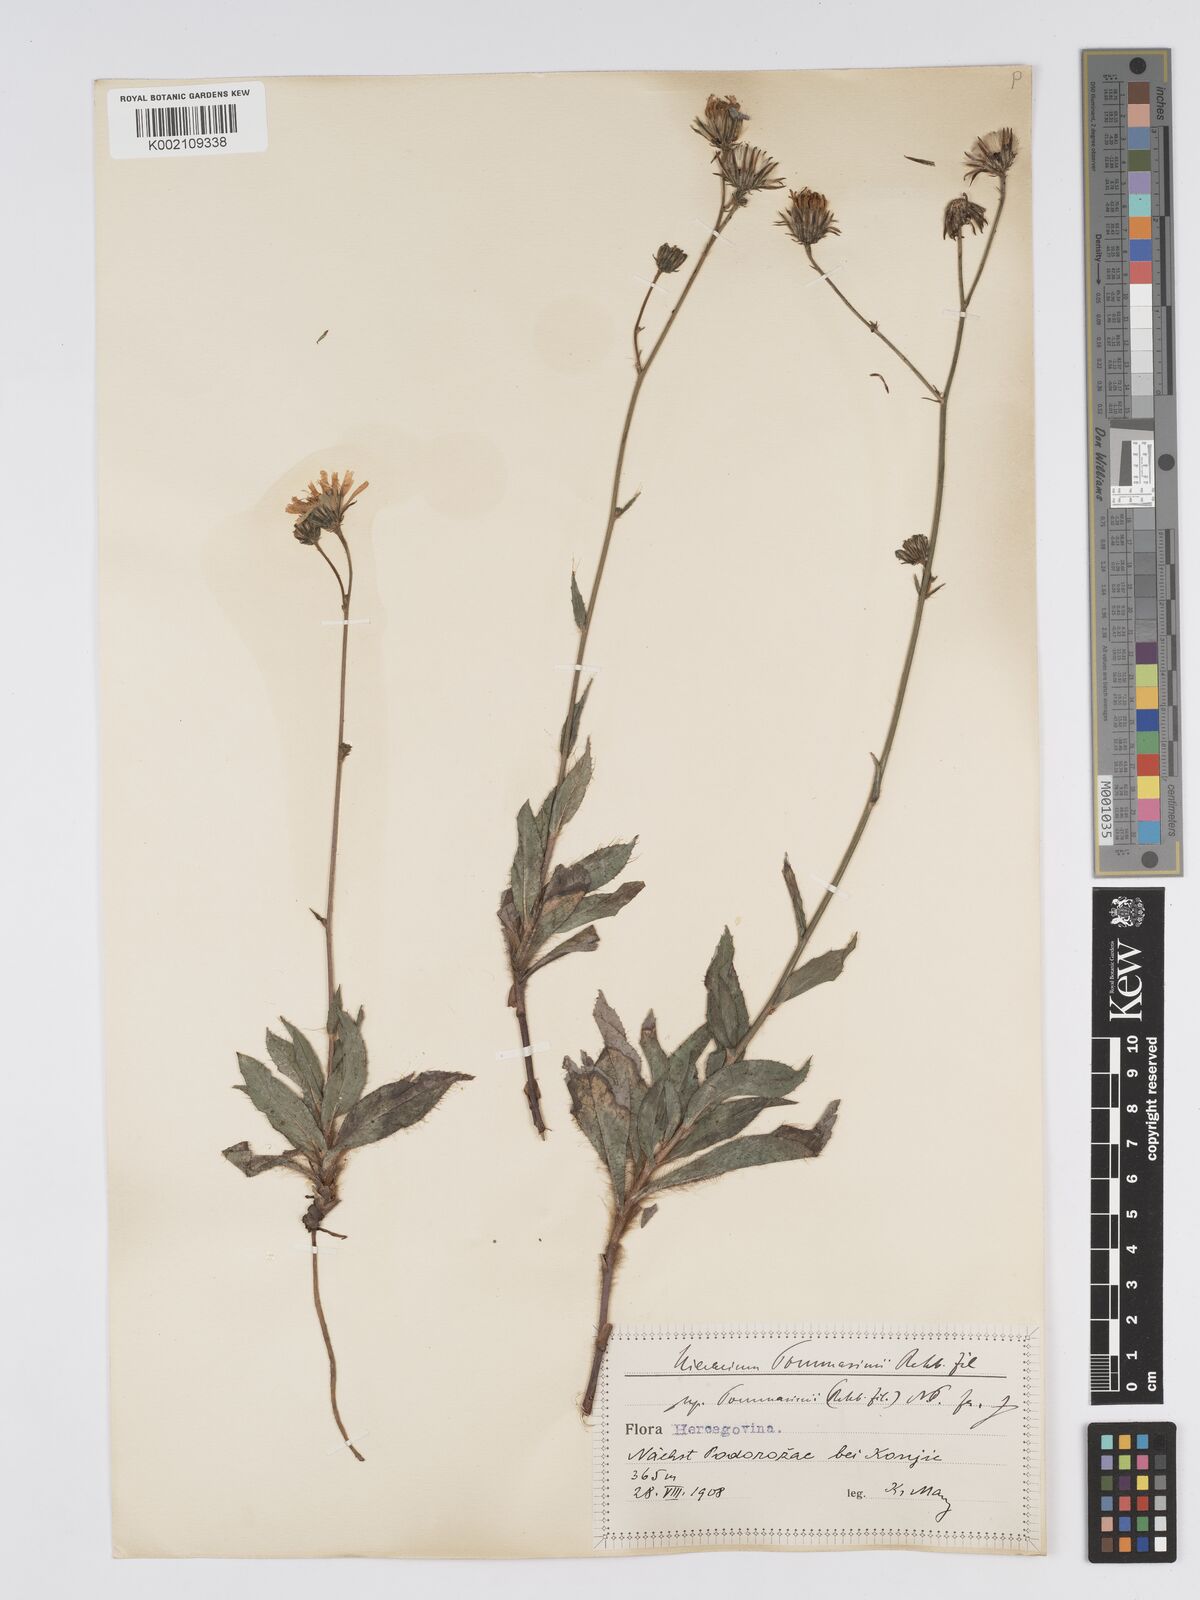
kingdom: Plantae
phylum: Tracheophyta
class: Magnoliopsida
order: Asterales
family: Asteraceae
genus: Hieracium
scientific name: Hieracium tommasinianum
